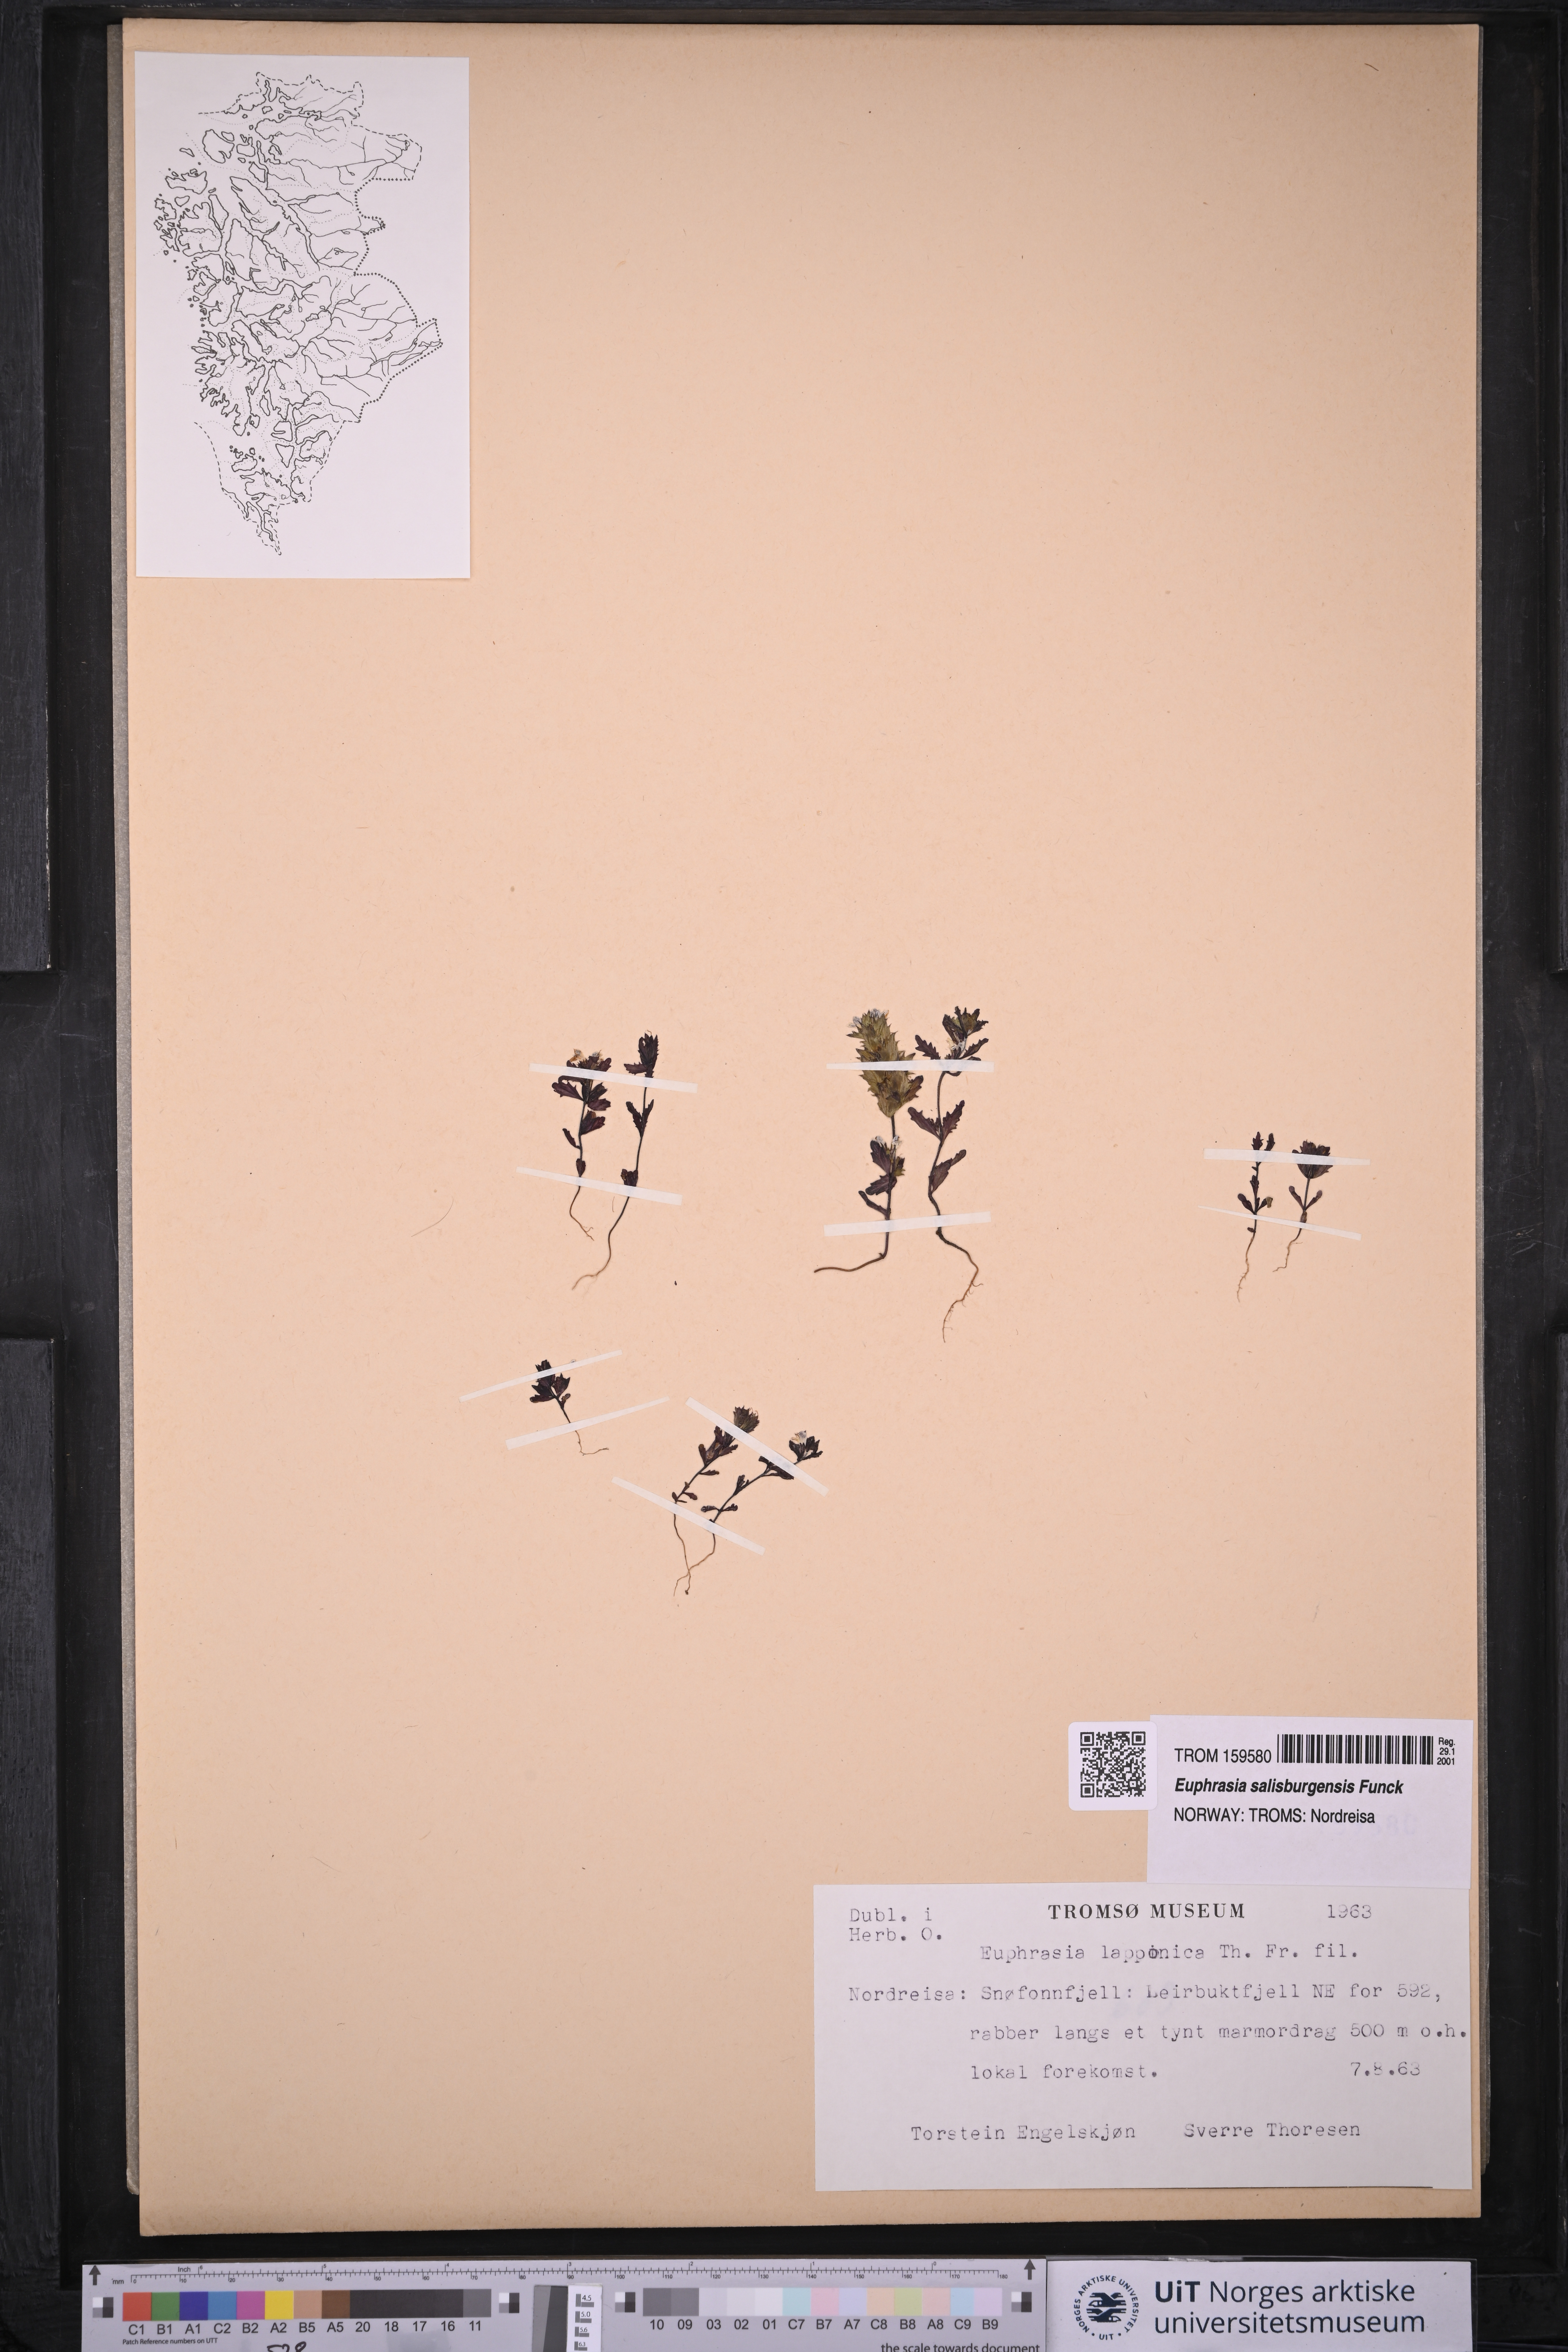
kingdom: Plantae
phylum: Tracheophyta
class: Magnoliopsida
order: Lamiales
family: Orobanchaceae
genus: Euphrasia
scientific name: Euphrasia salisburgensis
